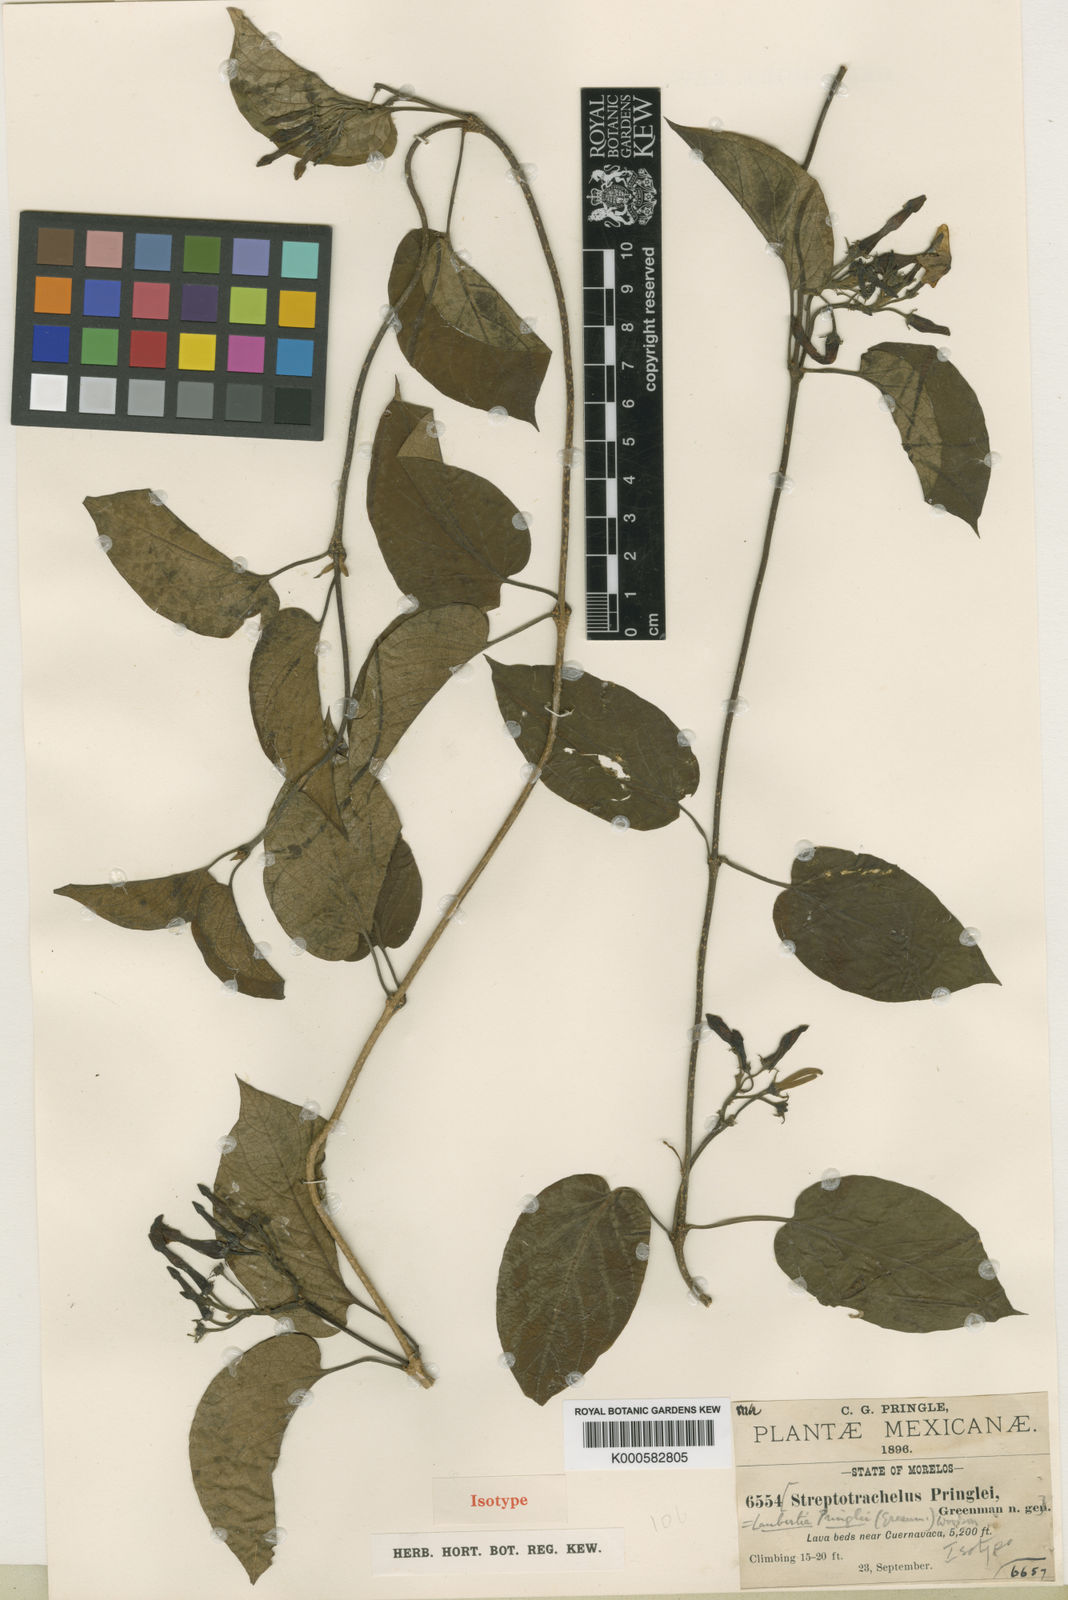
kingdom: Plantae
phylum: Tracheophyta
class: Magnoliopsida
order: Gentianales
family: Apocynaceae
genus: Laubertia
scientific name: Laubertia contorta
